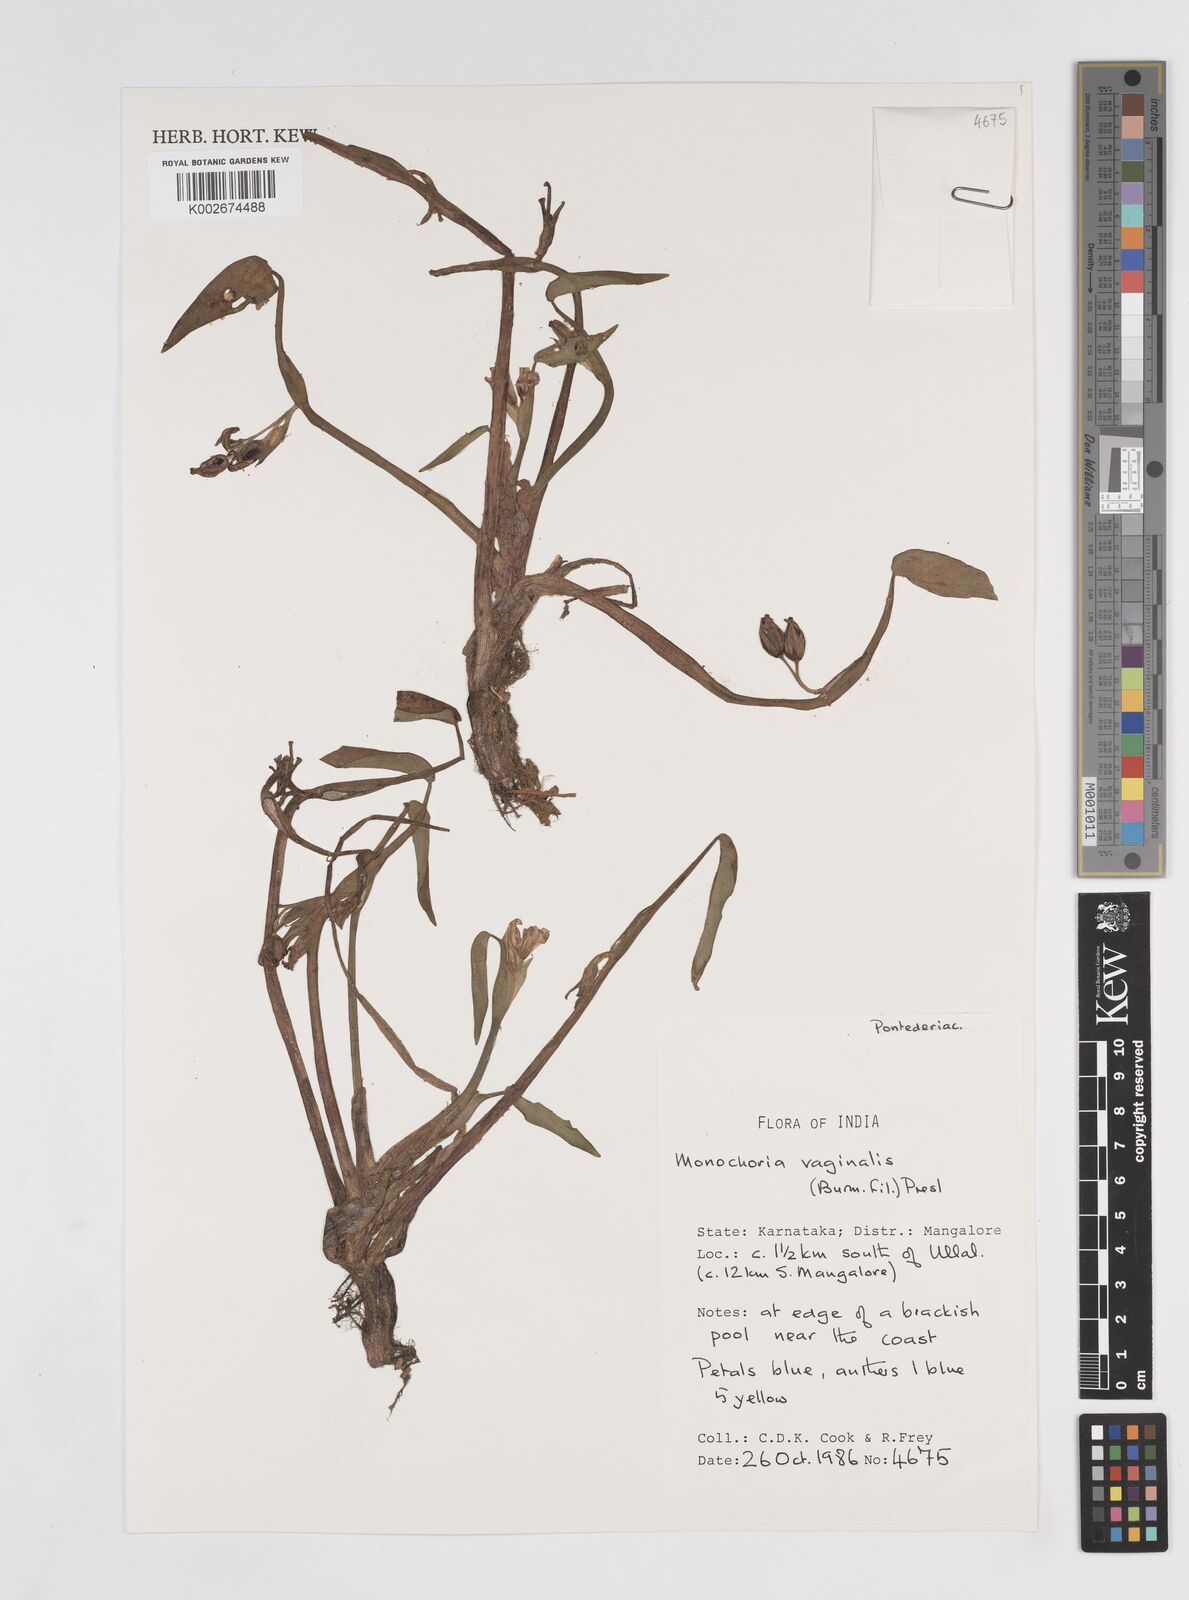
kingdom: Plantae
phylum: Tracheophyta
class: Liliopsida
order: Commelinales
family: Pontederiaceae
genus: Pontederia
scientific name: Pontederia vaginalis
